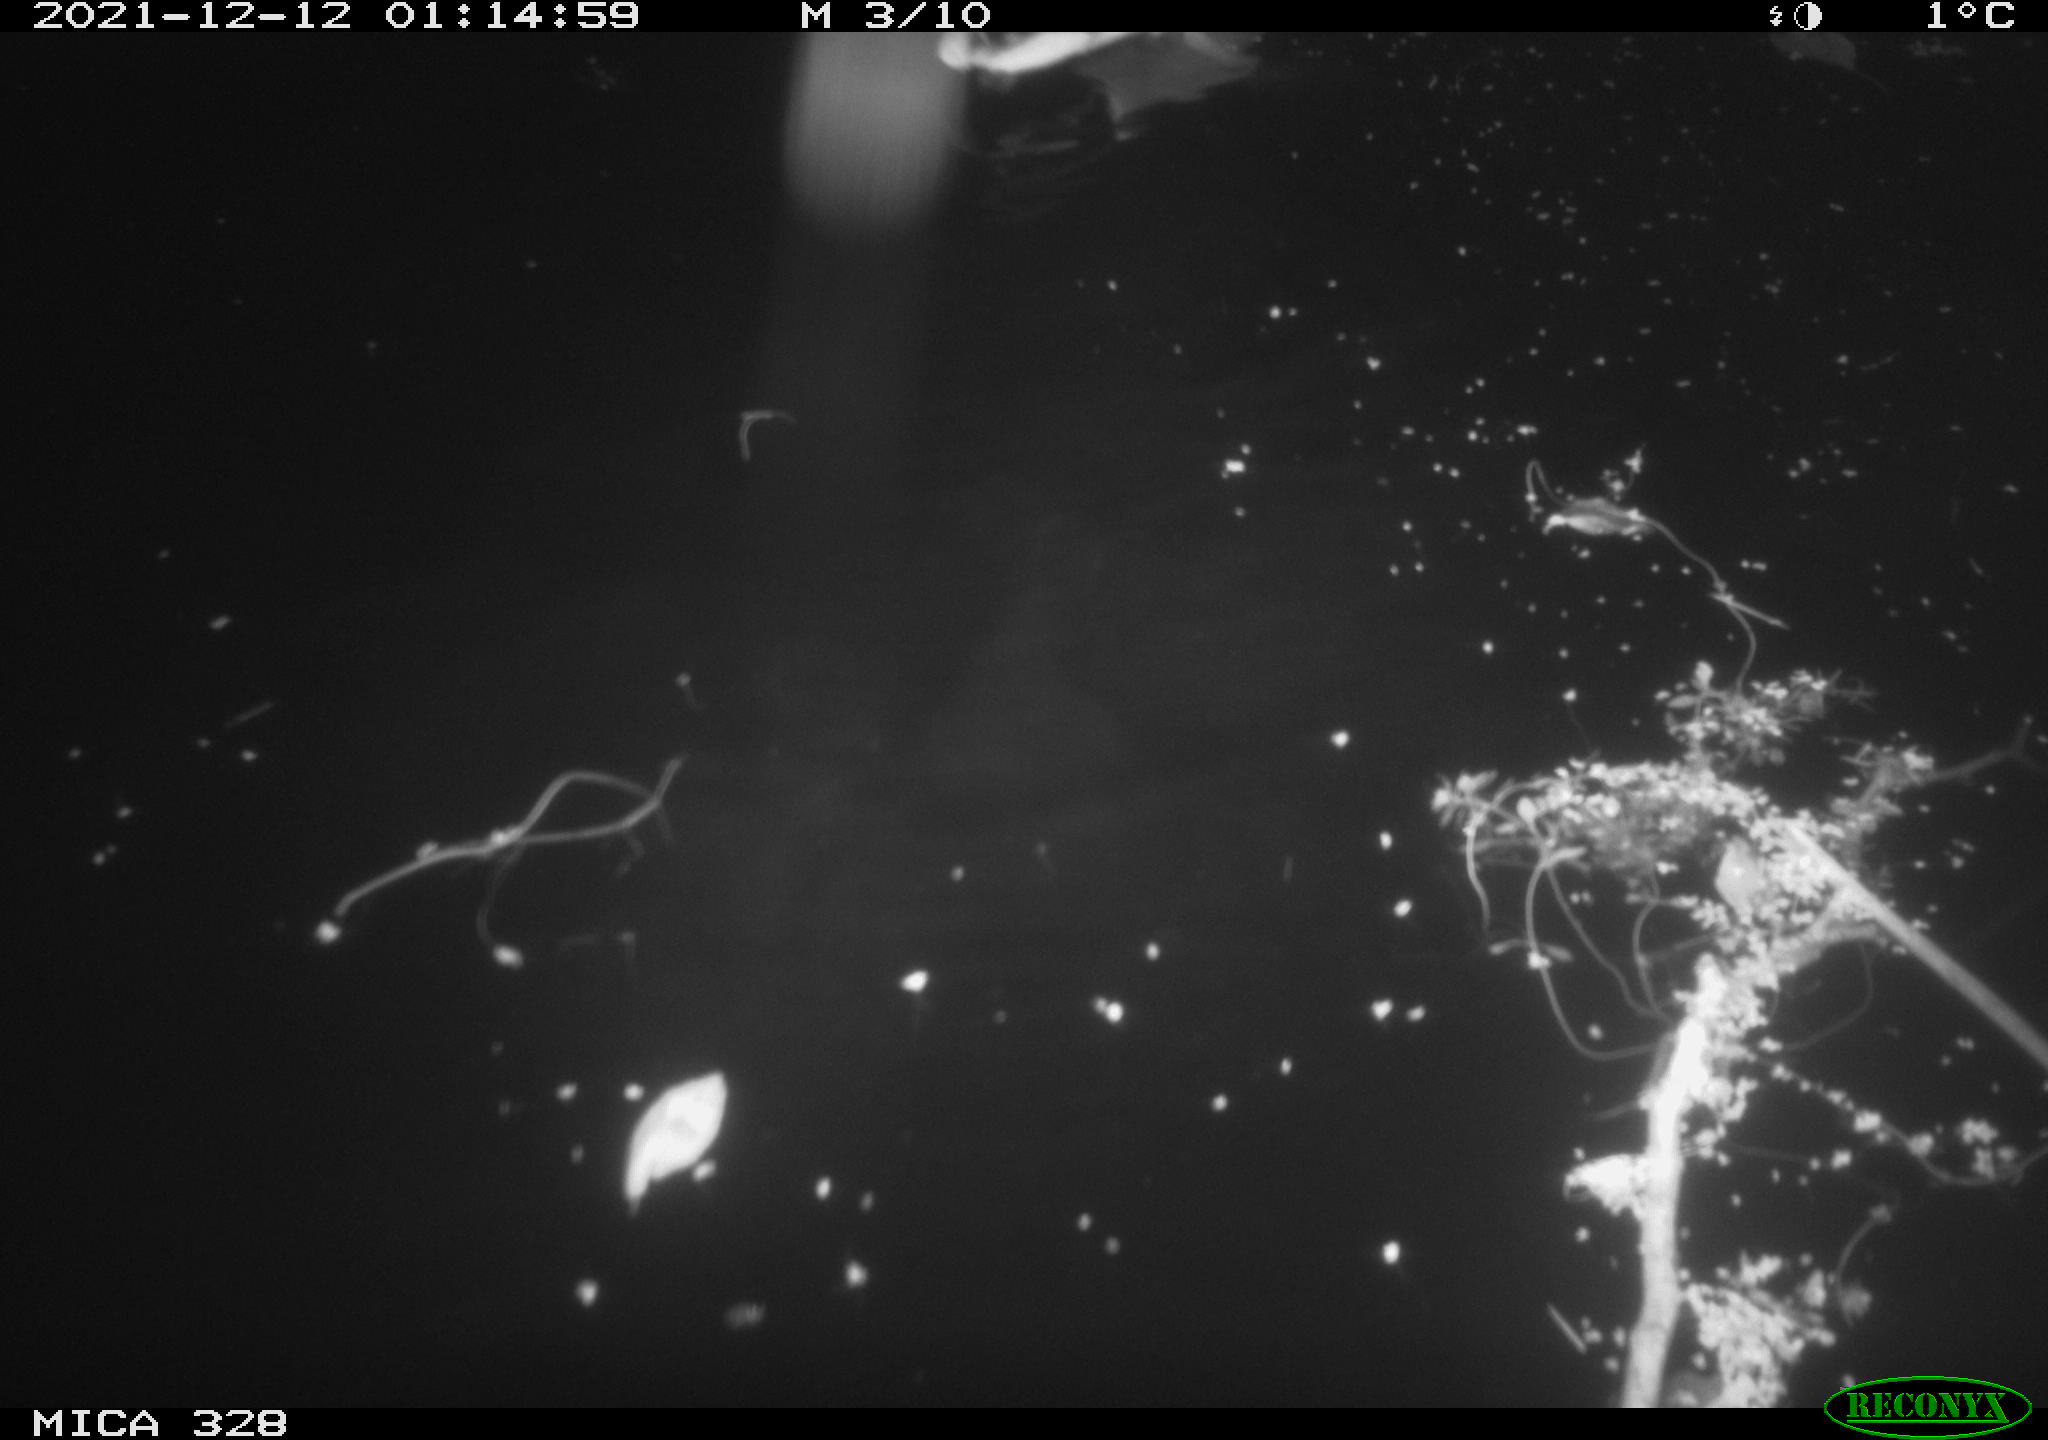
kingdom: Animalia
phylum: Chordata
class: Aves
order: Anseriformes
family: Anatidae
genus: Anas
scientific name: Anas platyrhynchos
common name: Mallard
